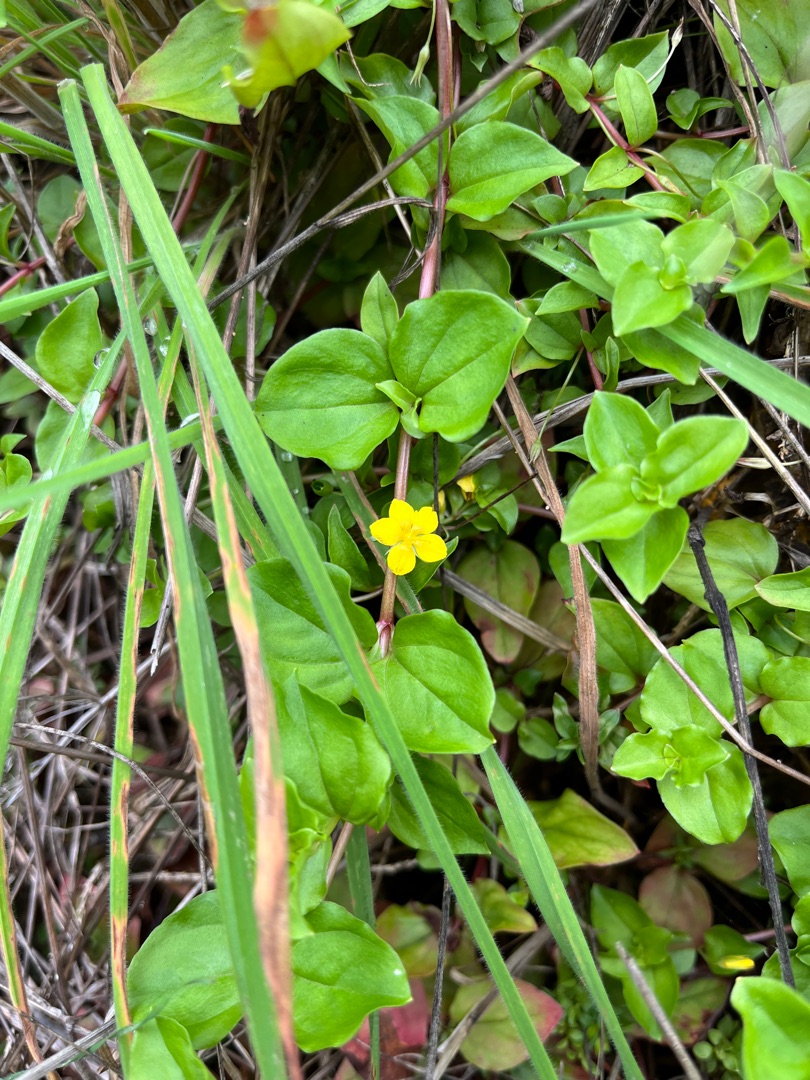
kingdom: Plantae
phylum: Tracheophyta
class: Magnoliopsida
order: Ericales
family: Primulaceae
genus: Lysimachia
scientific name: Lysimachia nemorum
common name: Lund-fredløs
